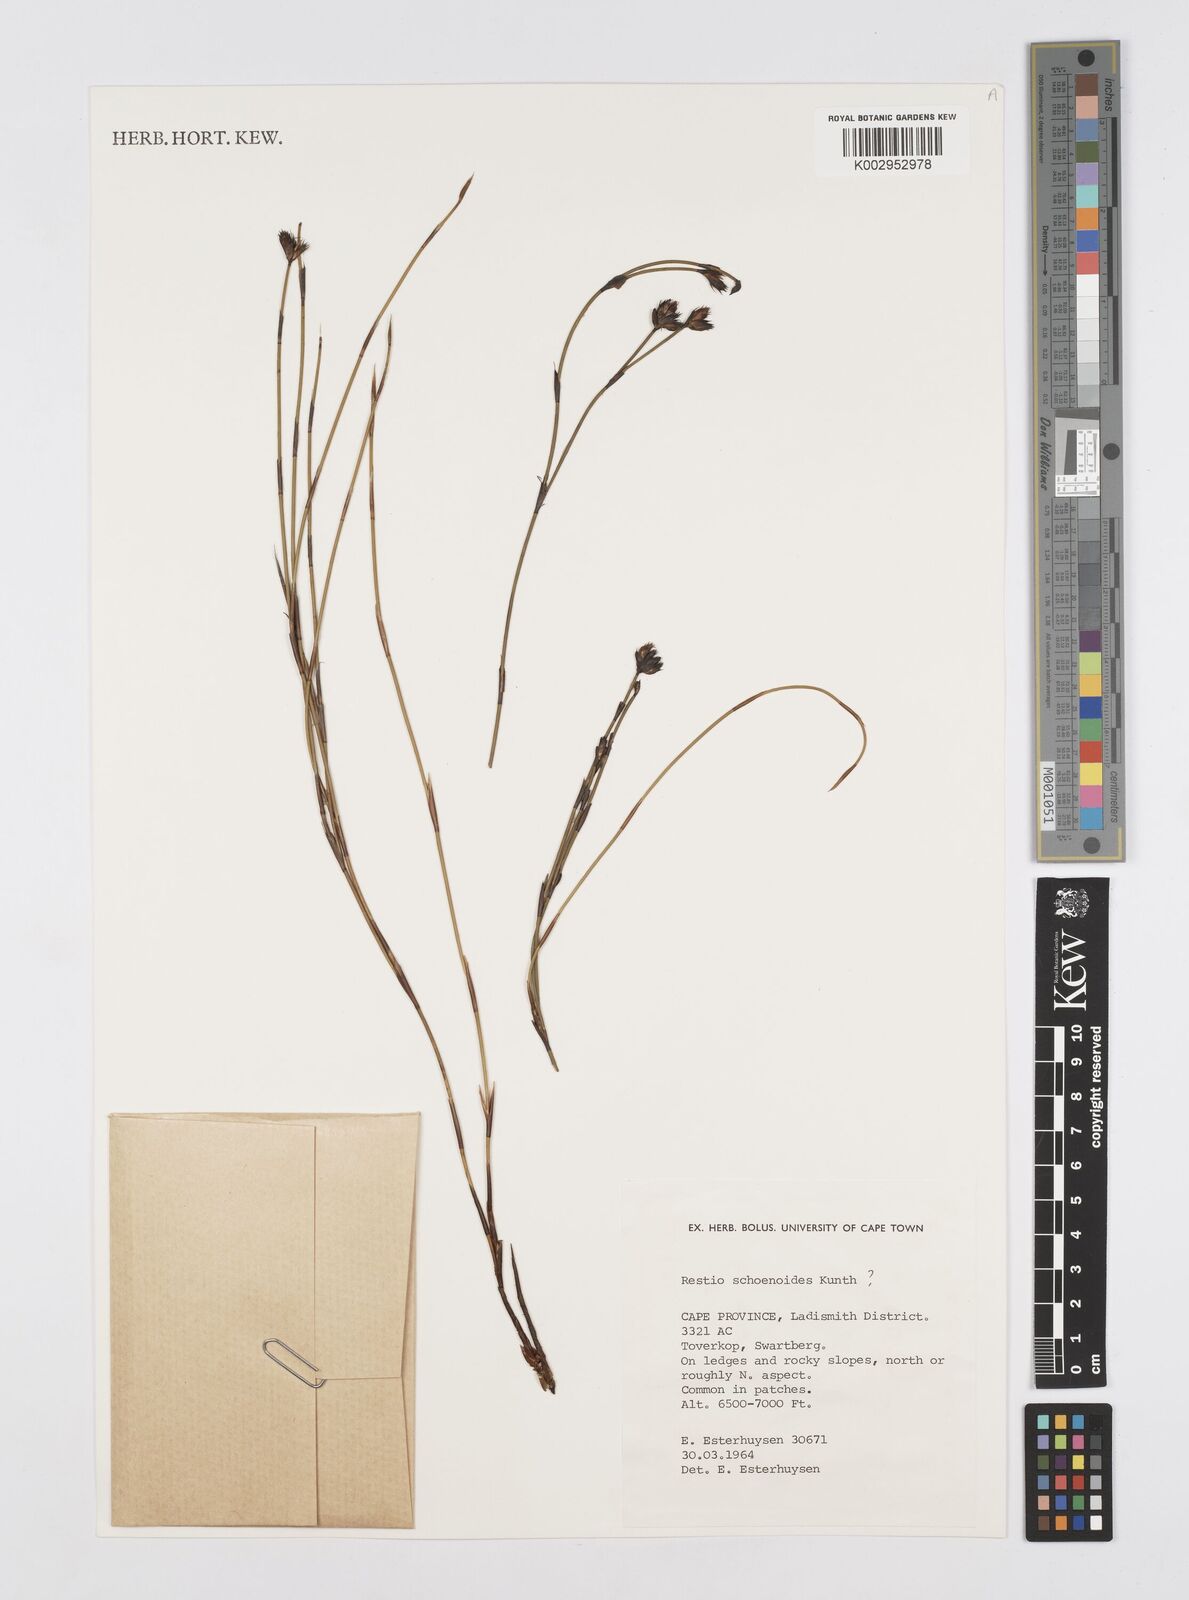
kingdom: Plantae
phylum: Tracheophyta
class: Liliopsida
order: Poales
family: Restionaceae
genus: Restio
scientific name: Restio schoenoides
